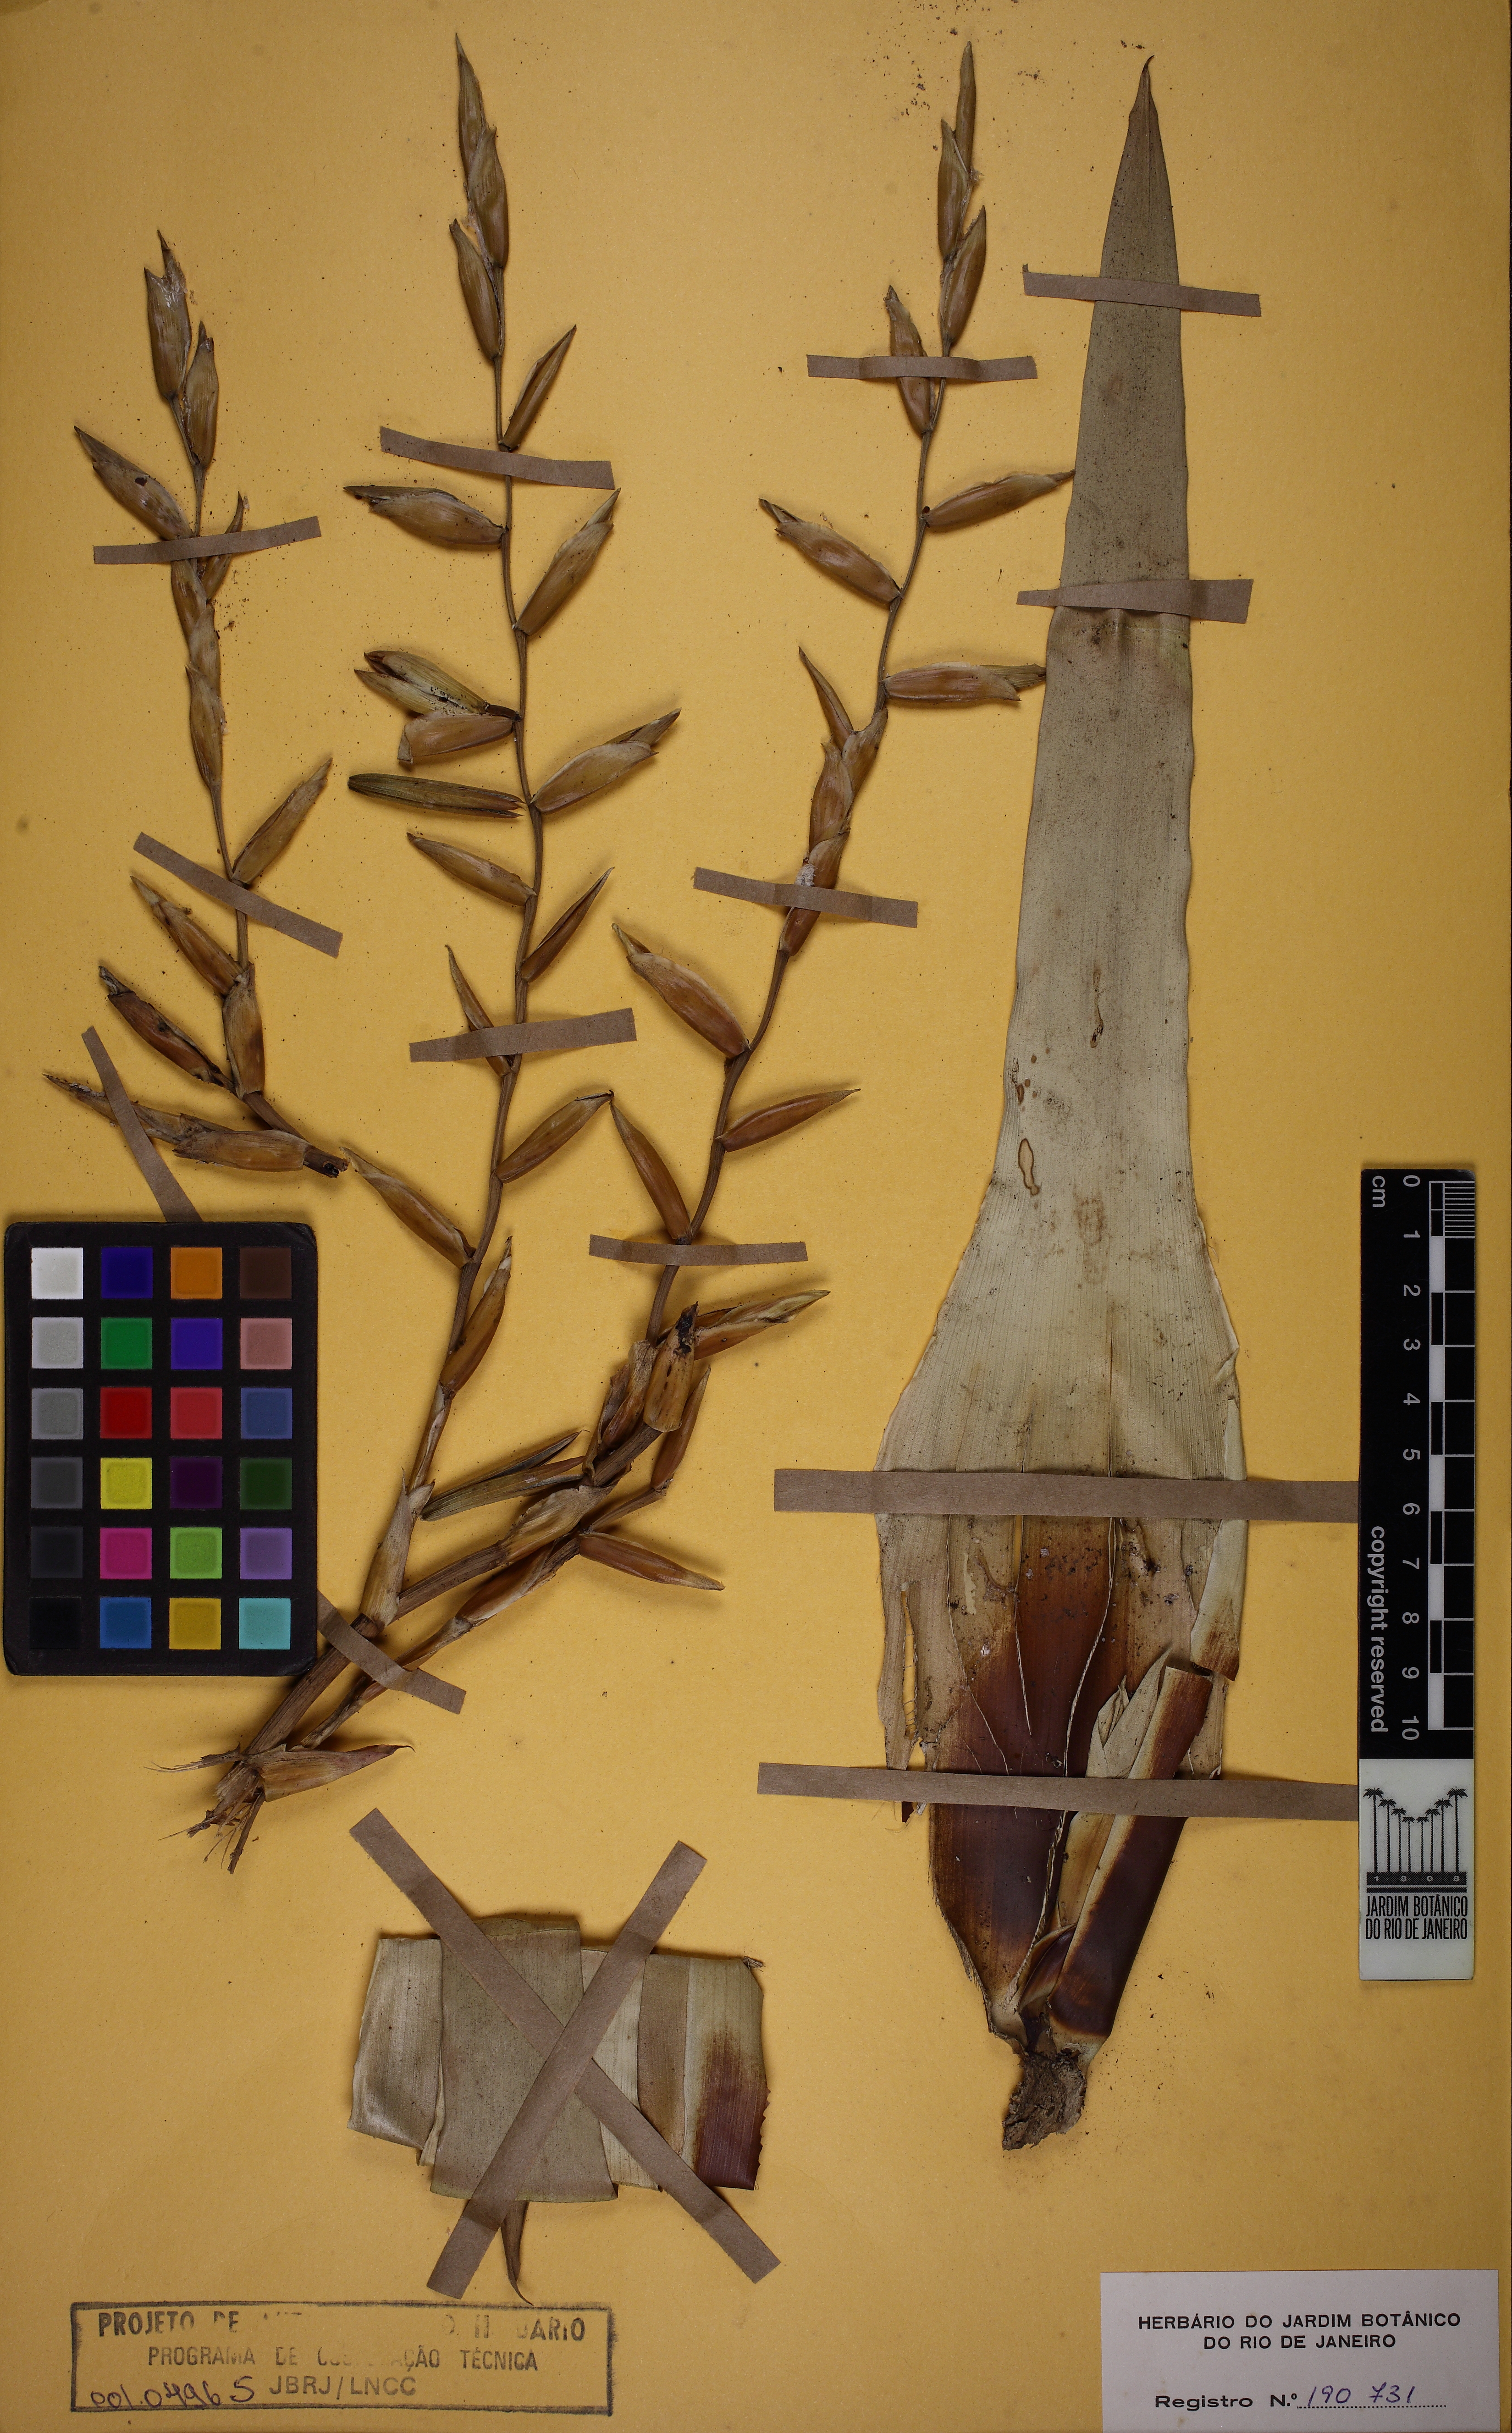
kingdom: Plantae
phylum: Tracheophyta
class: Liliopsida
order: Poales
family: Bromeliaceae
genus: Vriesea
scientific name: Vriesea neoglutinosa
